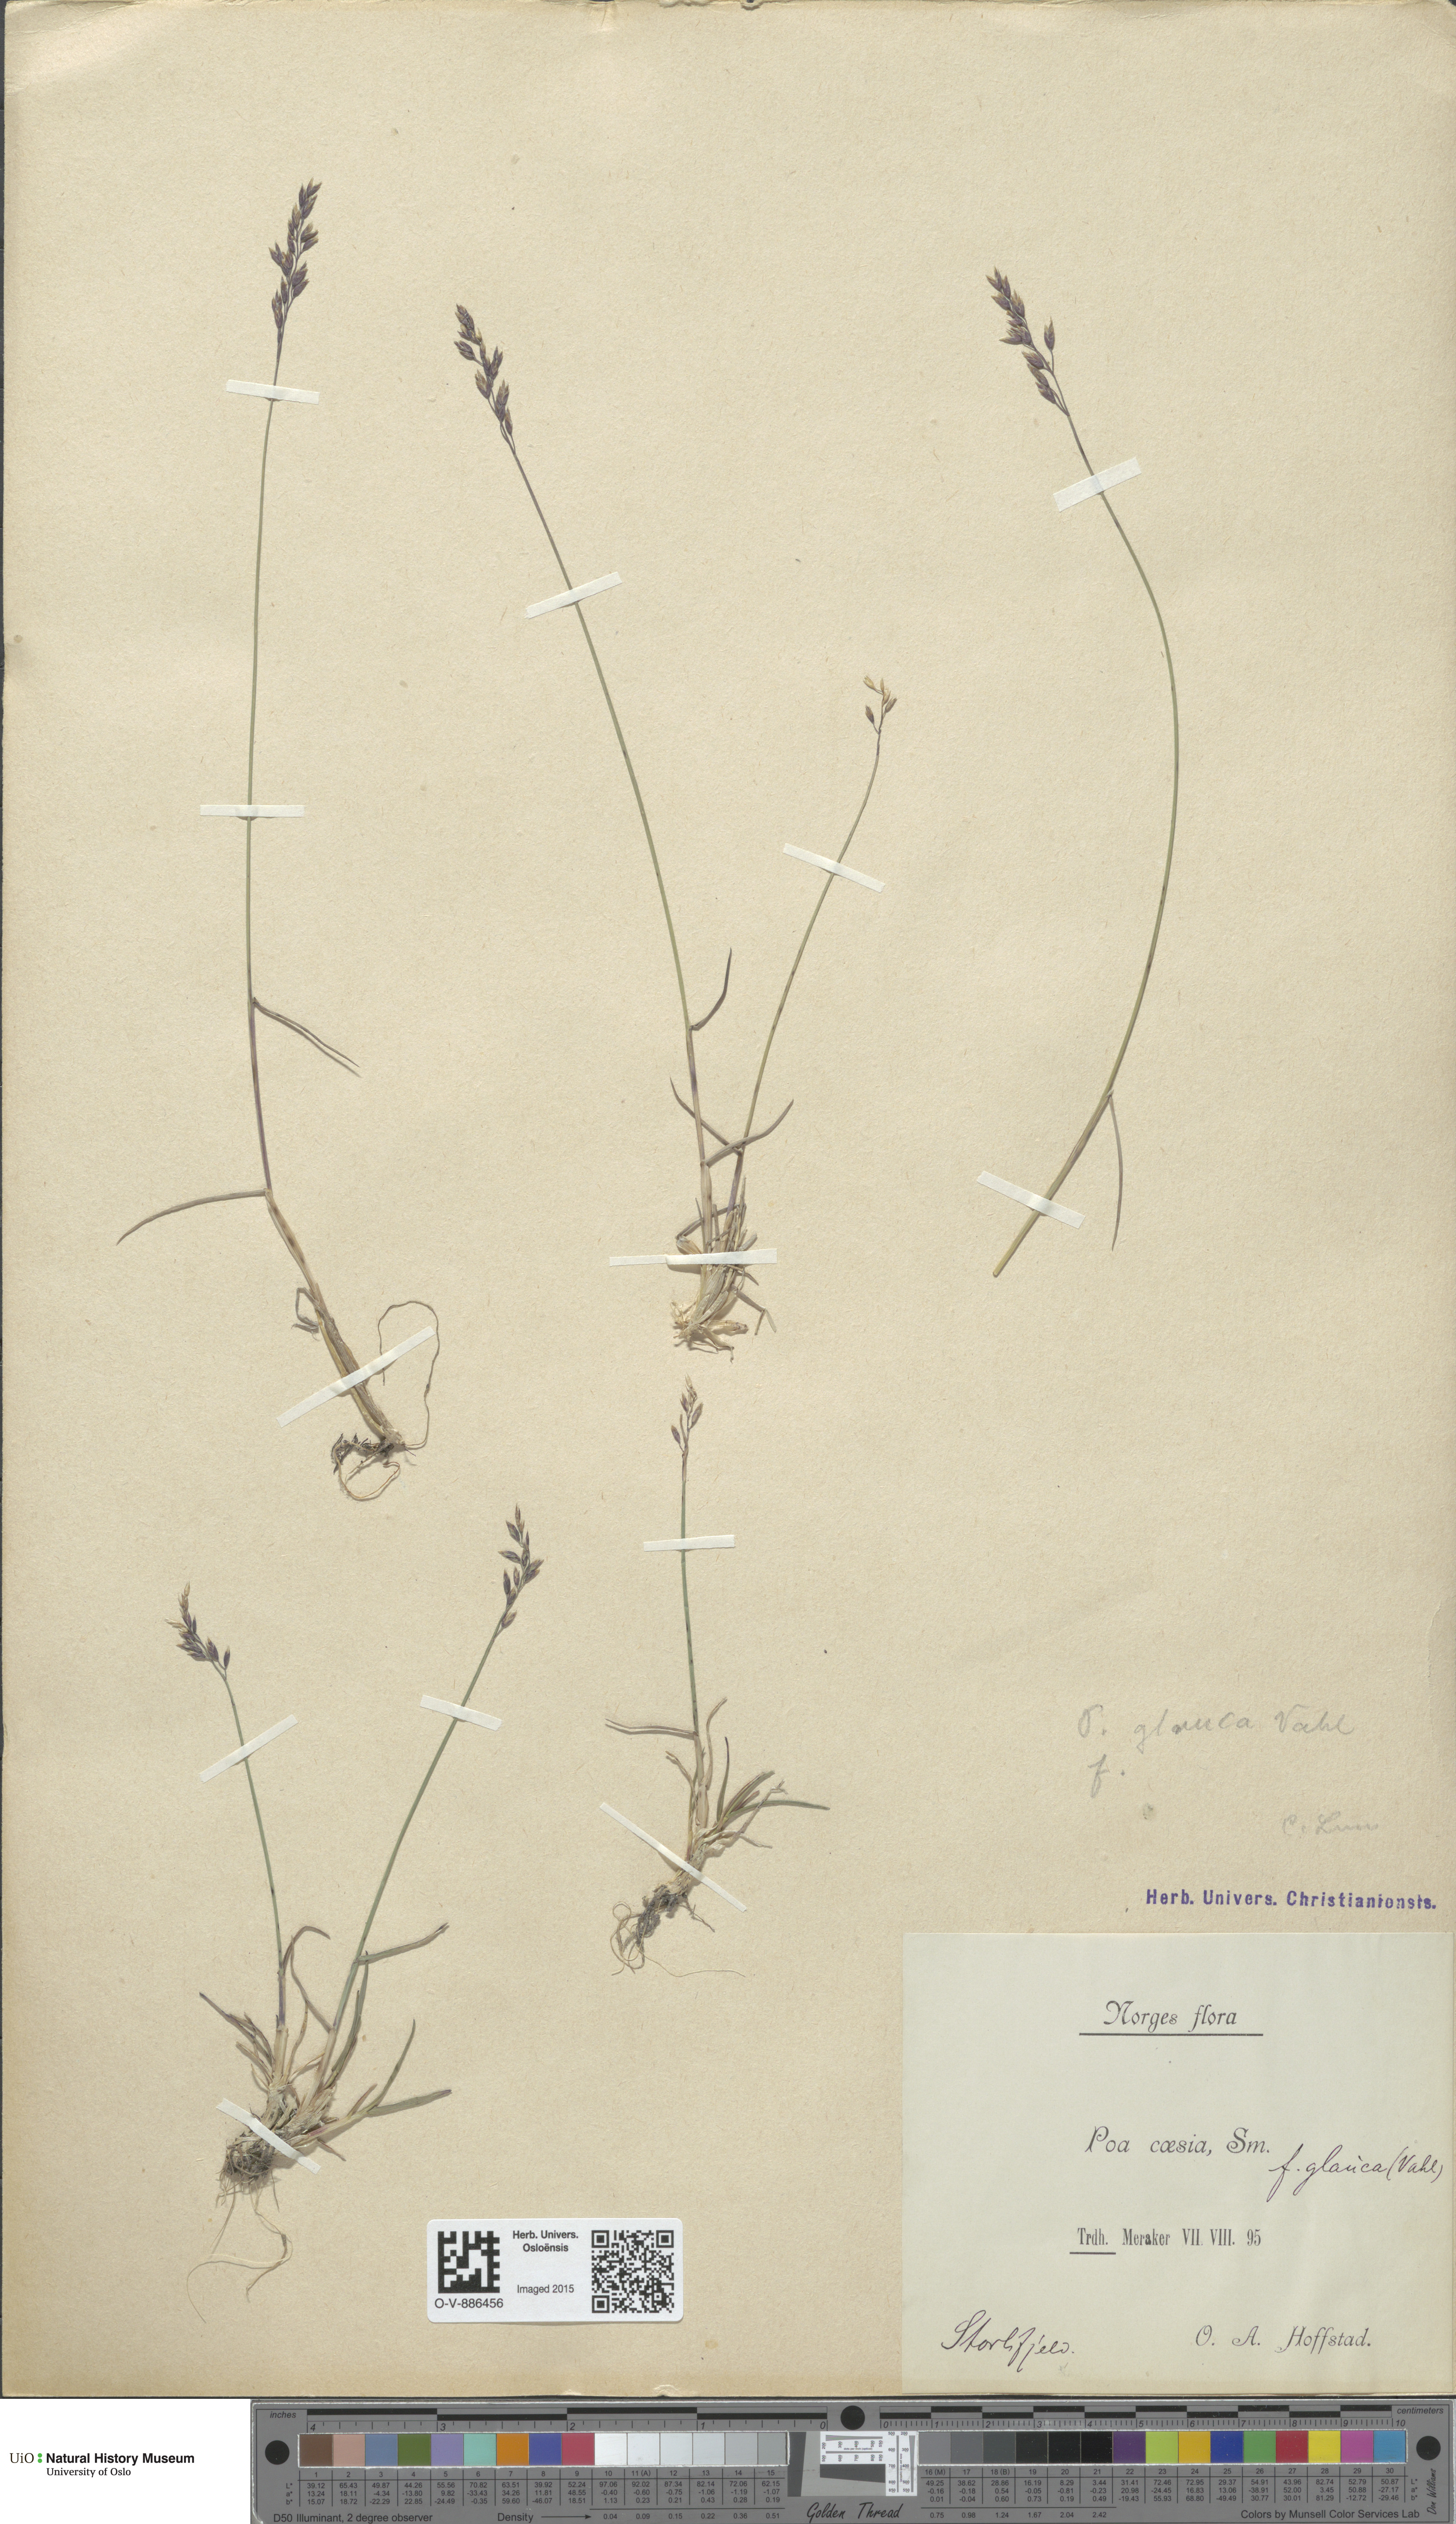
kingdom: Plantae
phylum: Tracheophyta
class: Liliopsida
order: Poales
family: Poaceae
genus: Poa
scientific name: Poa glauca
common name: Glaucous bluegrass
